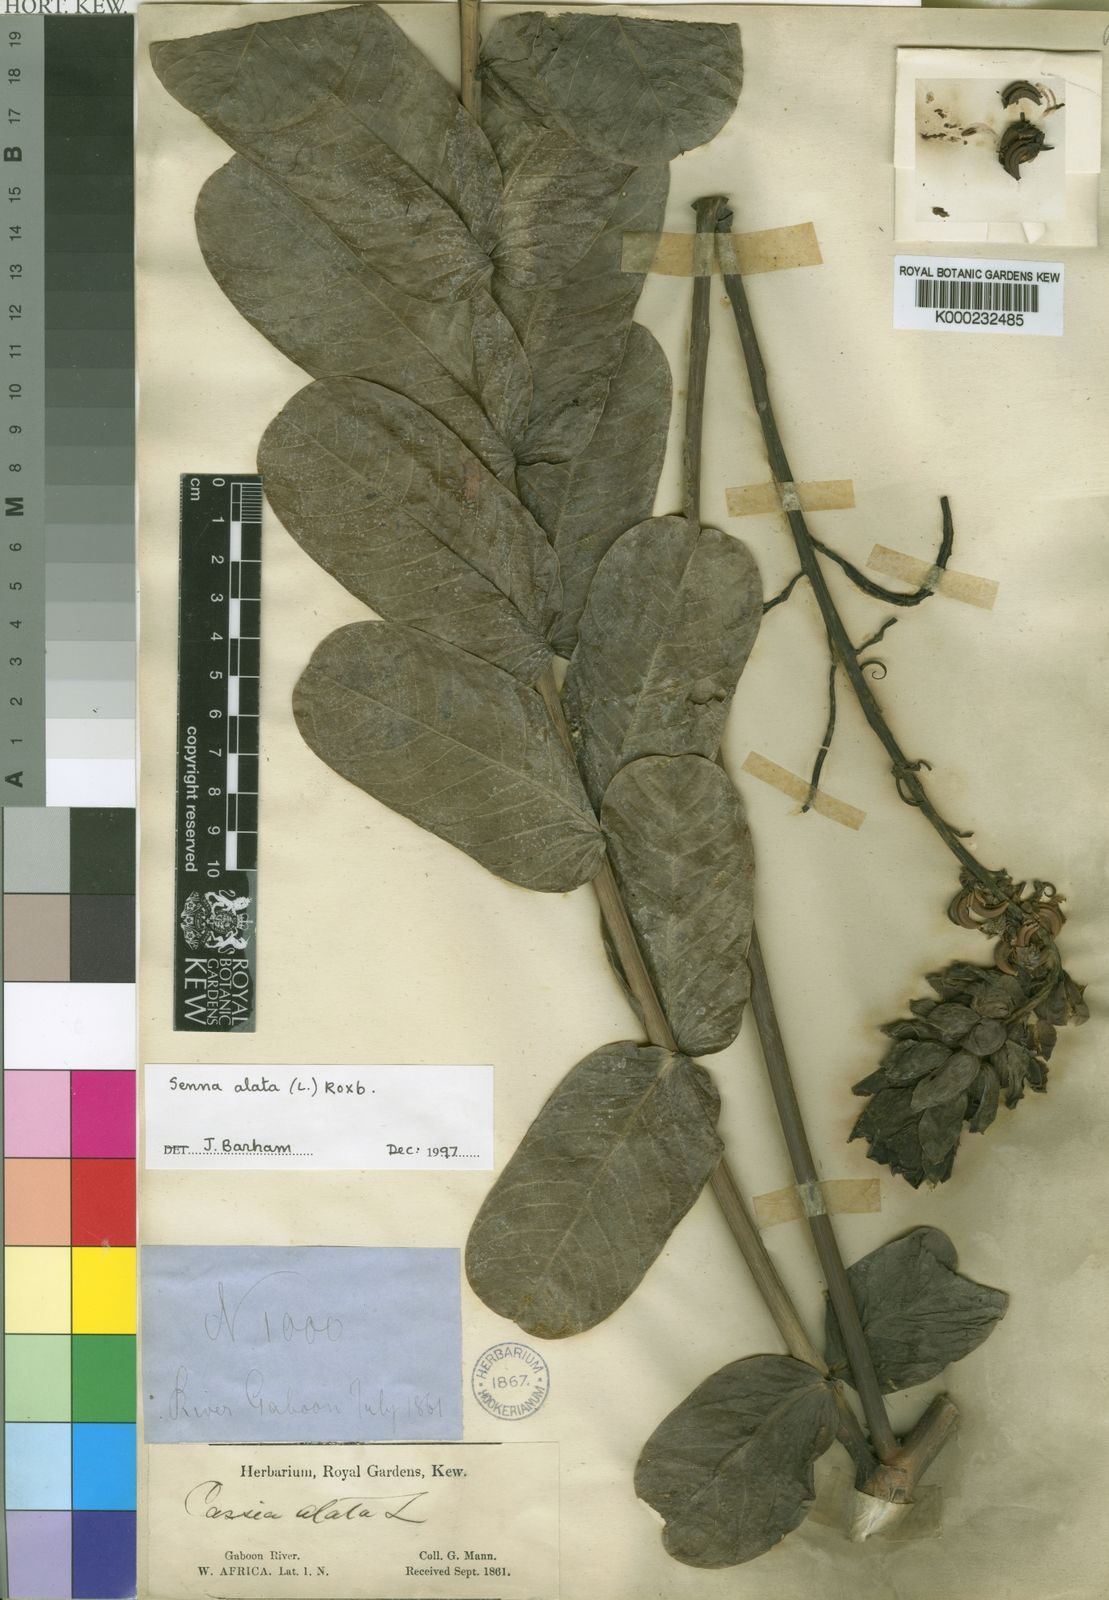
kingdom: Plantae
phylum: Tracheophyta
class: Magnoliopsida
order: Fabales
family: Fabaceae
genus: Senna
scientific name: Senna alata
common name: Emperor's candlesticks
